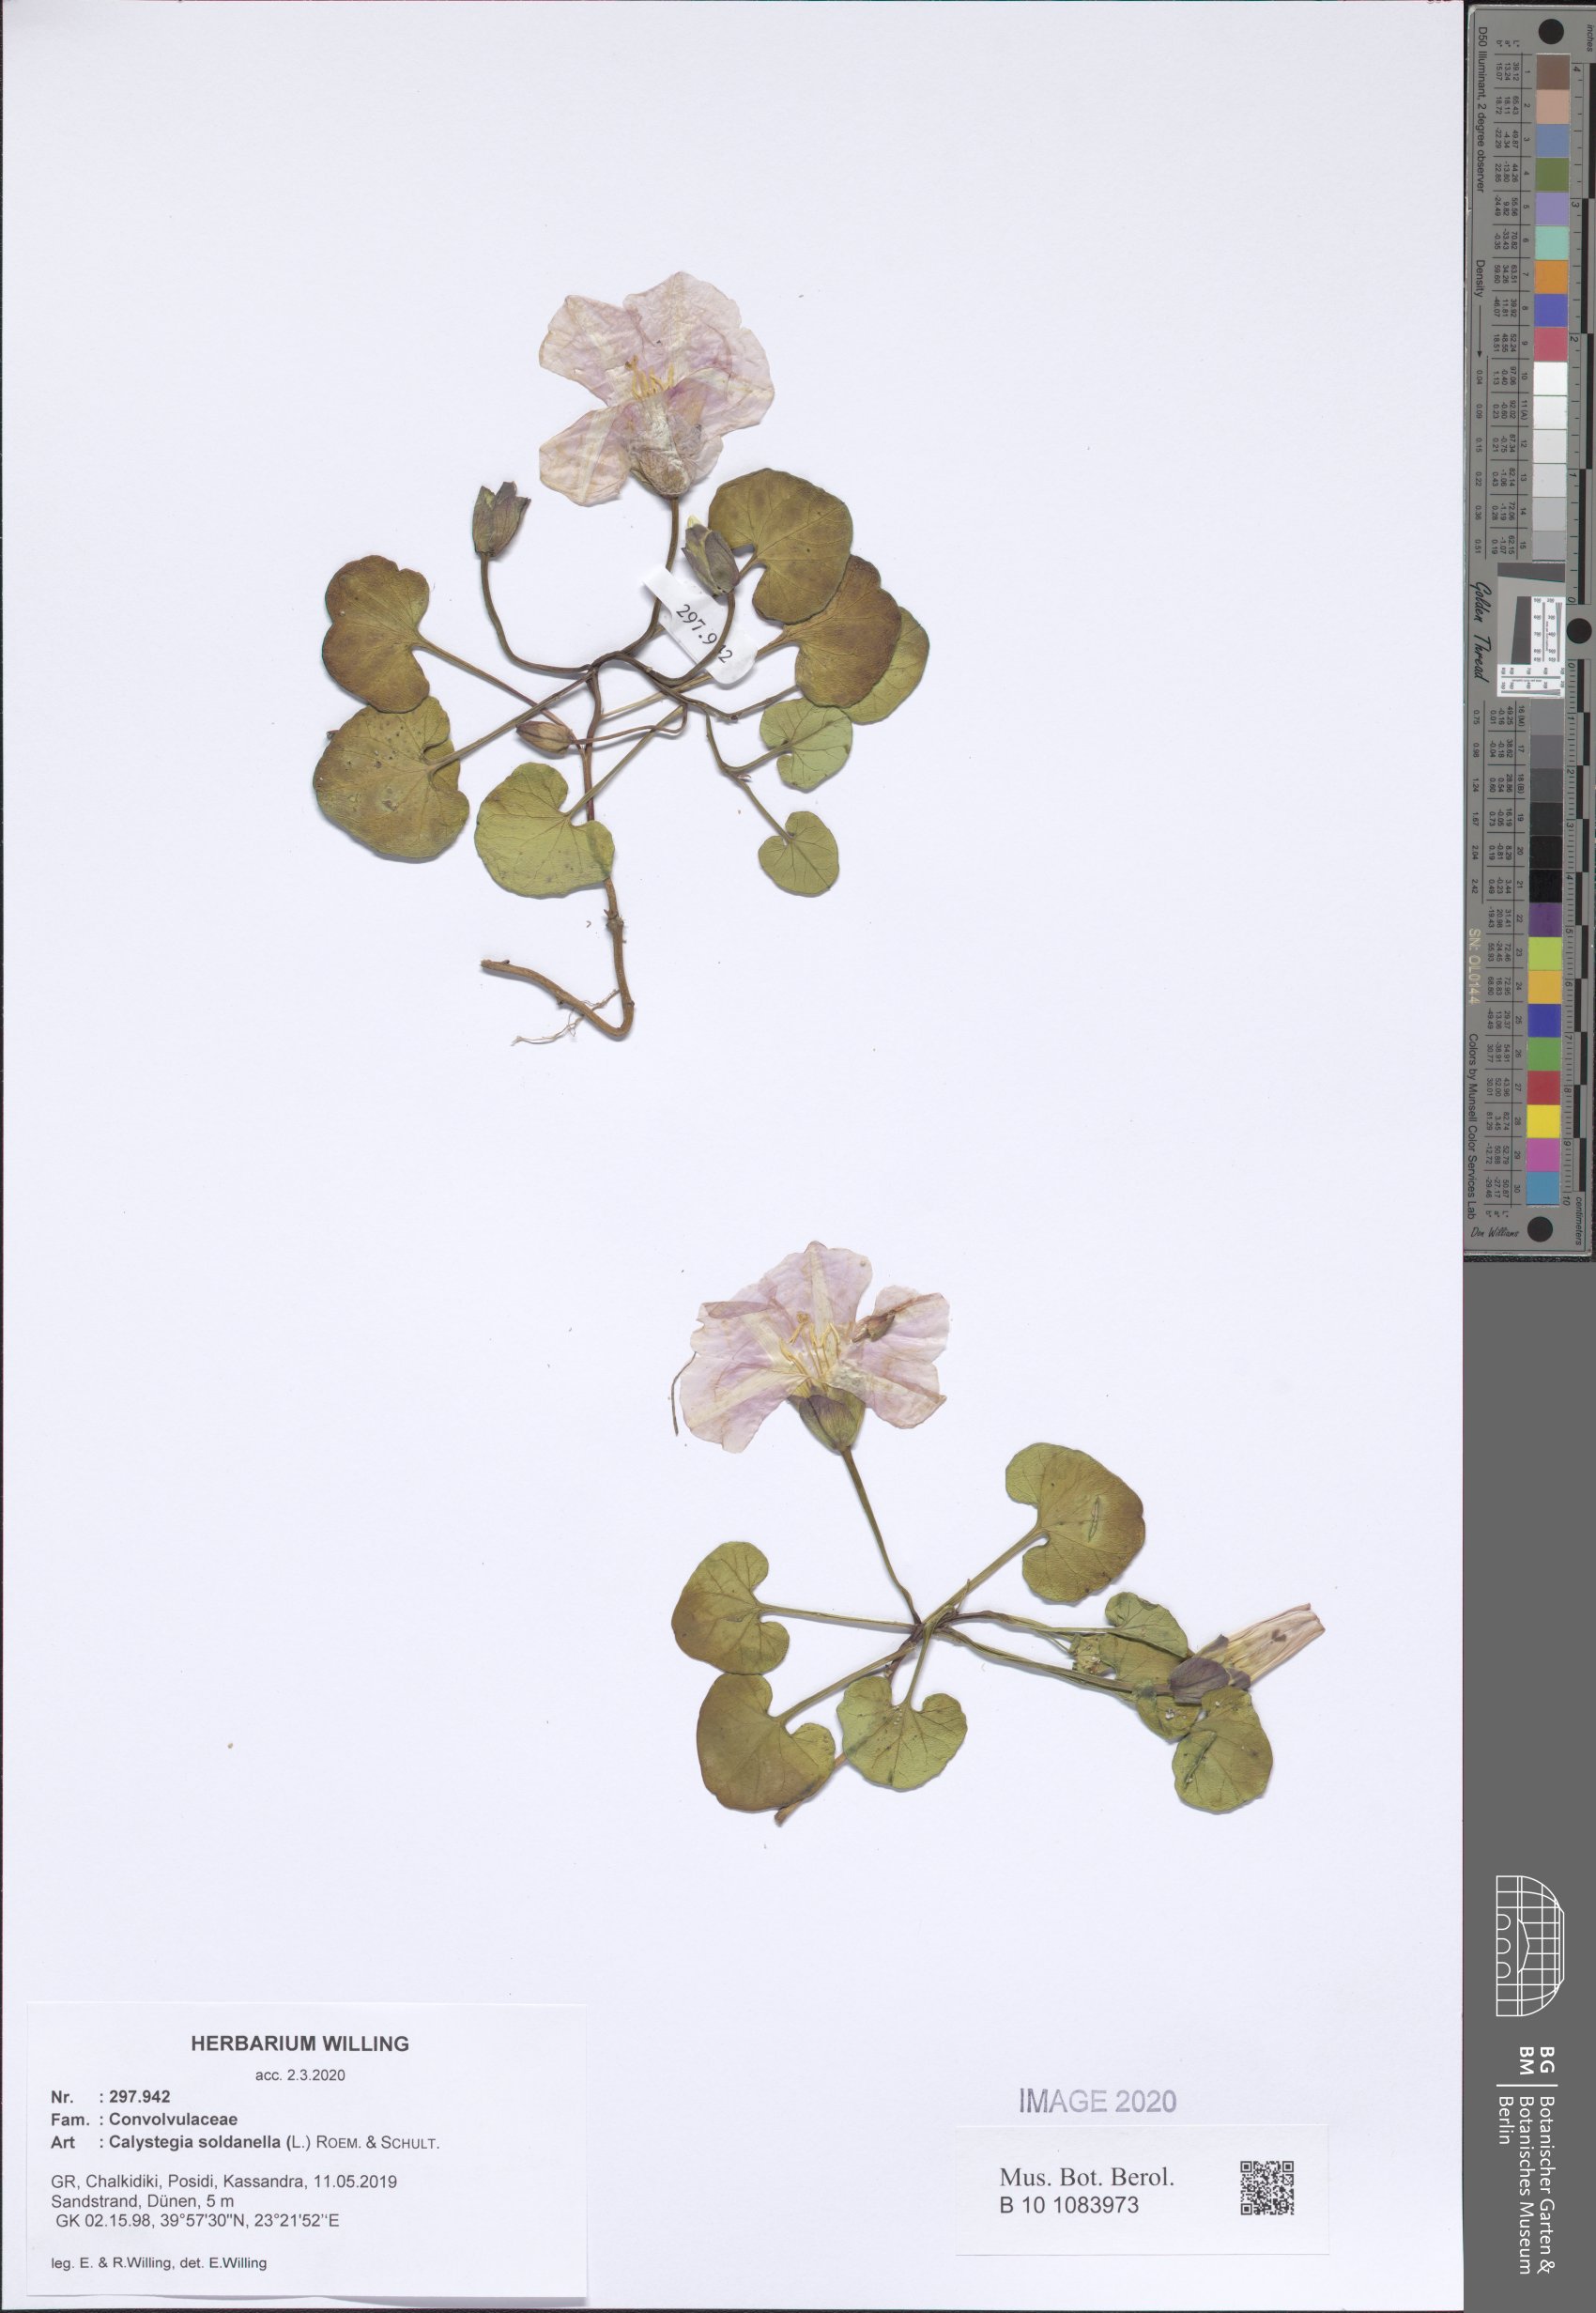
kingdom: Plantae
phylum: Tracheophyta
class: Magnoliopsida
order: Solanales
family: Convolvulaceae
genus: Calystegia
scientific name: Calystegia soldanella
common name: Sea bindweed
